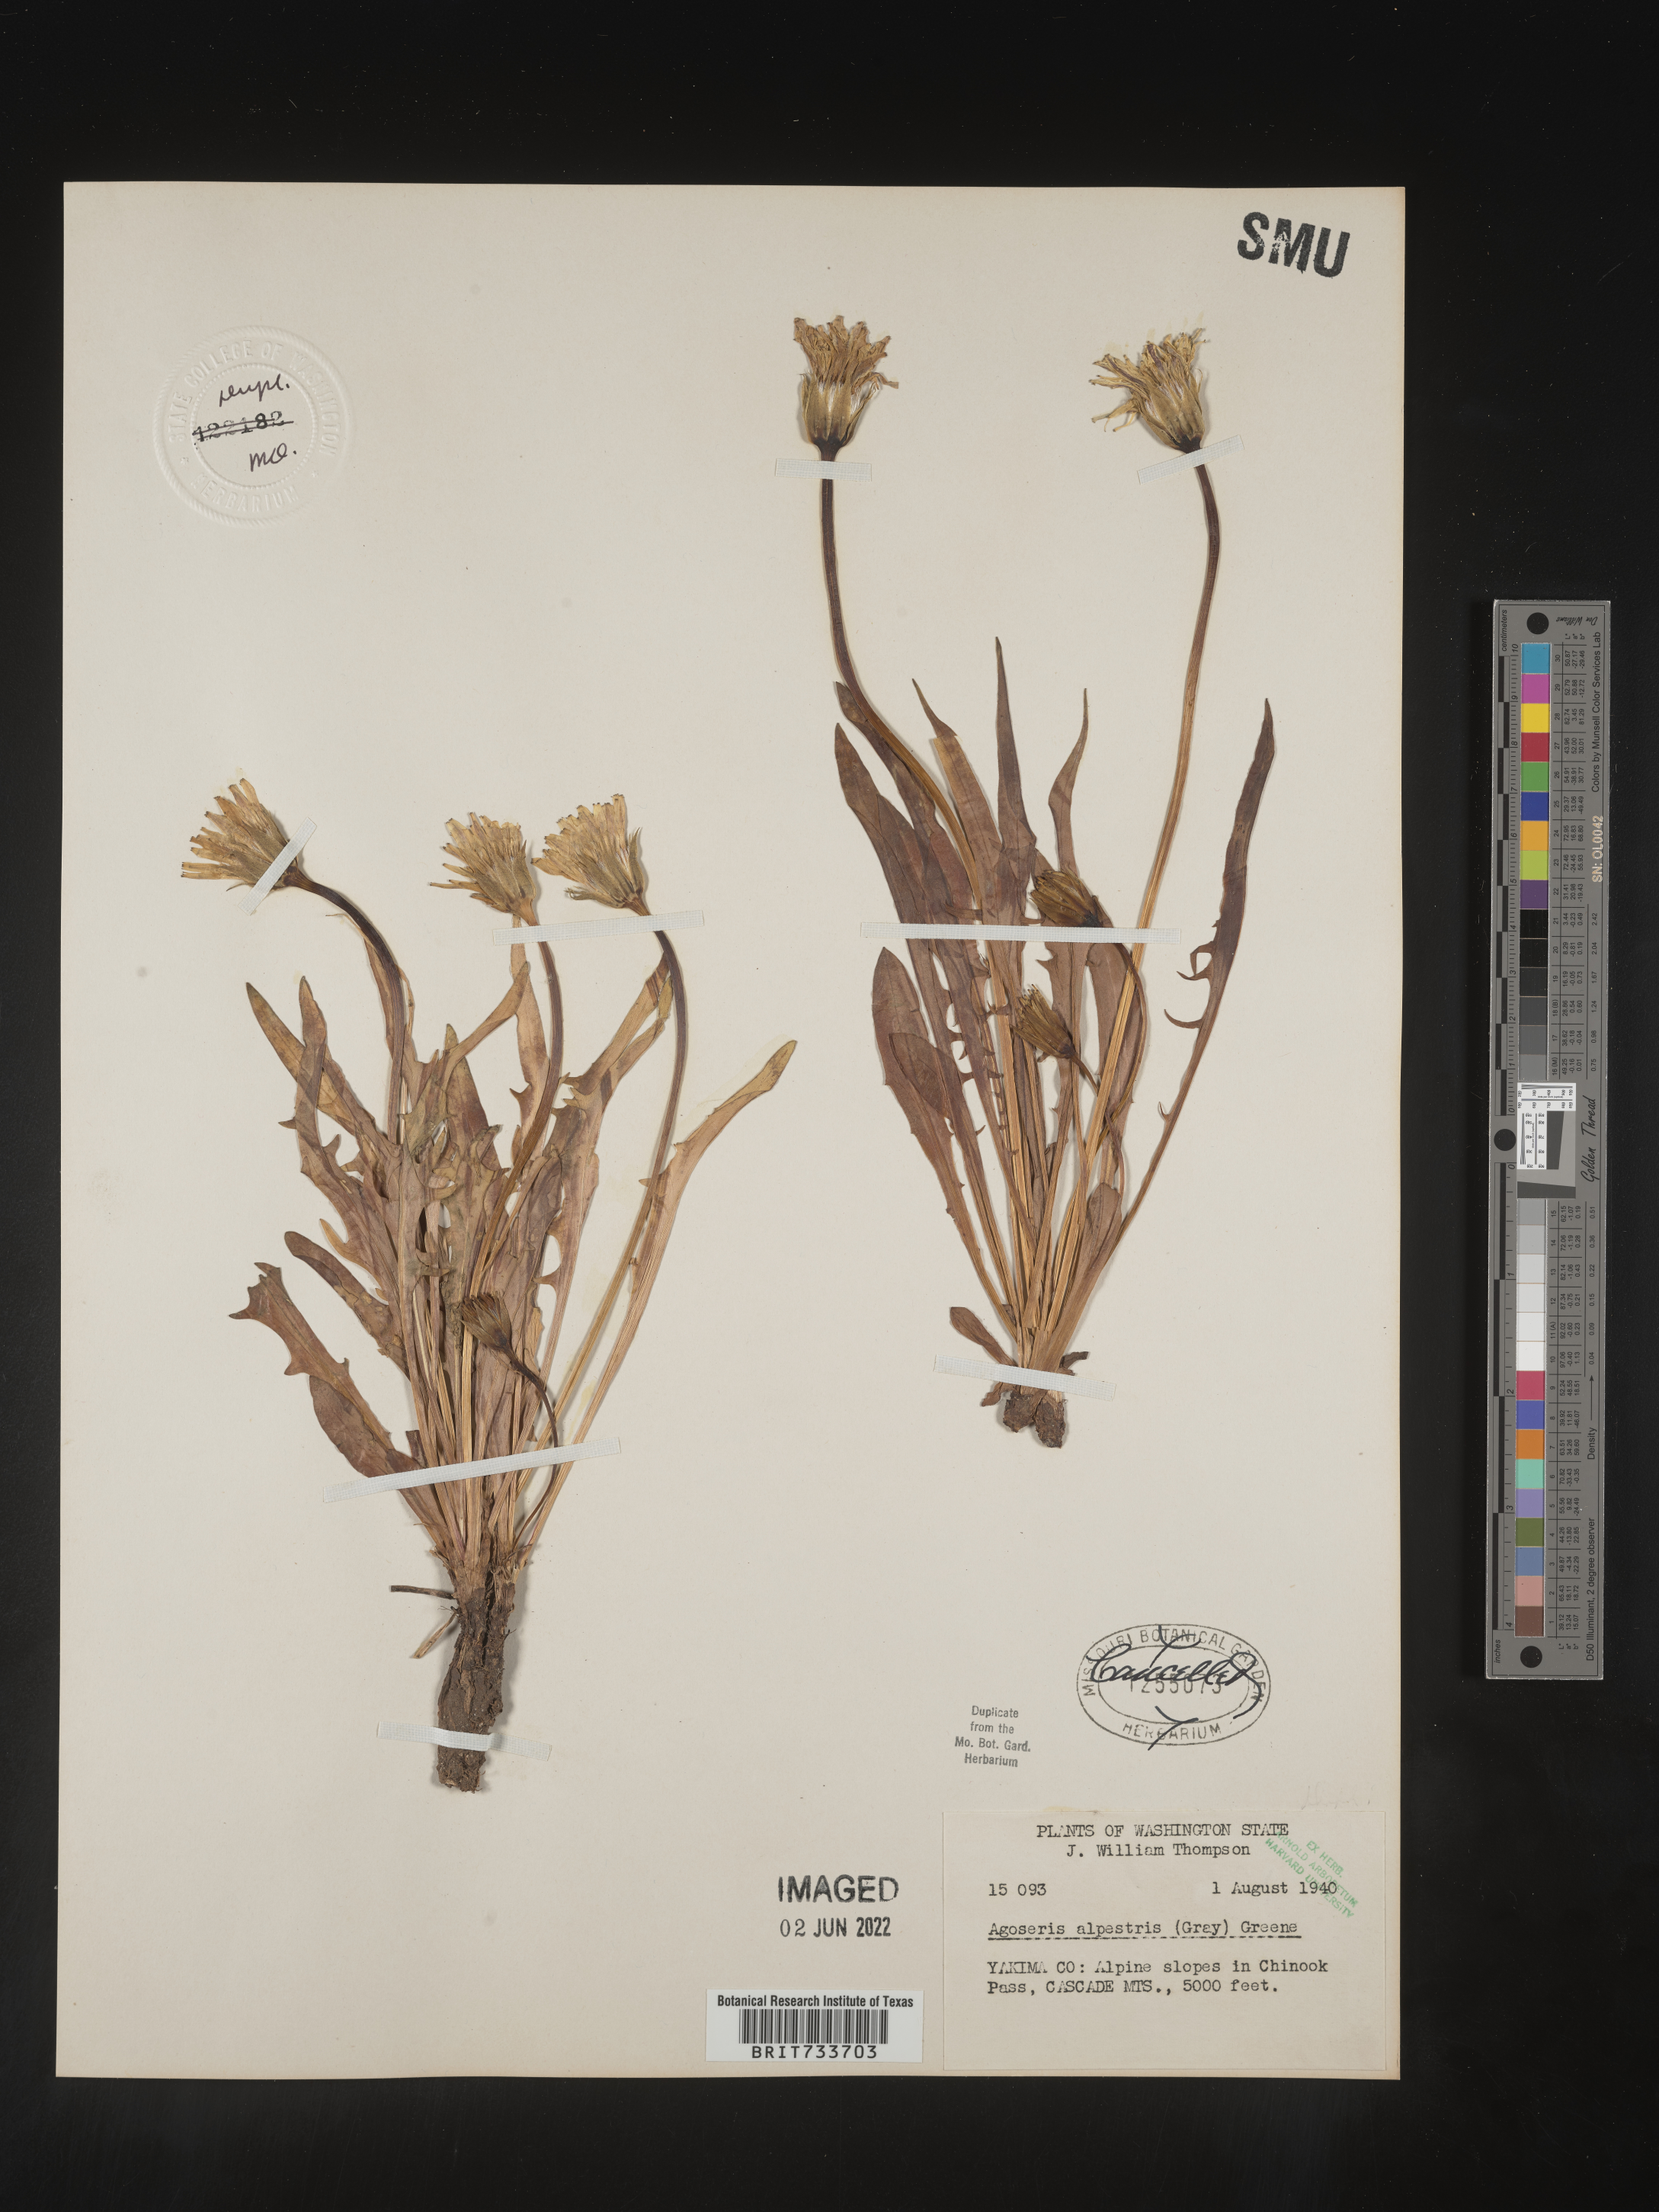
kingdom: Plantae
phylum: Tracheophyta
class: Magnoliopsida
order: Asterales
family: Asteraceae
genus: Microseris
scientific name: Microseris
